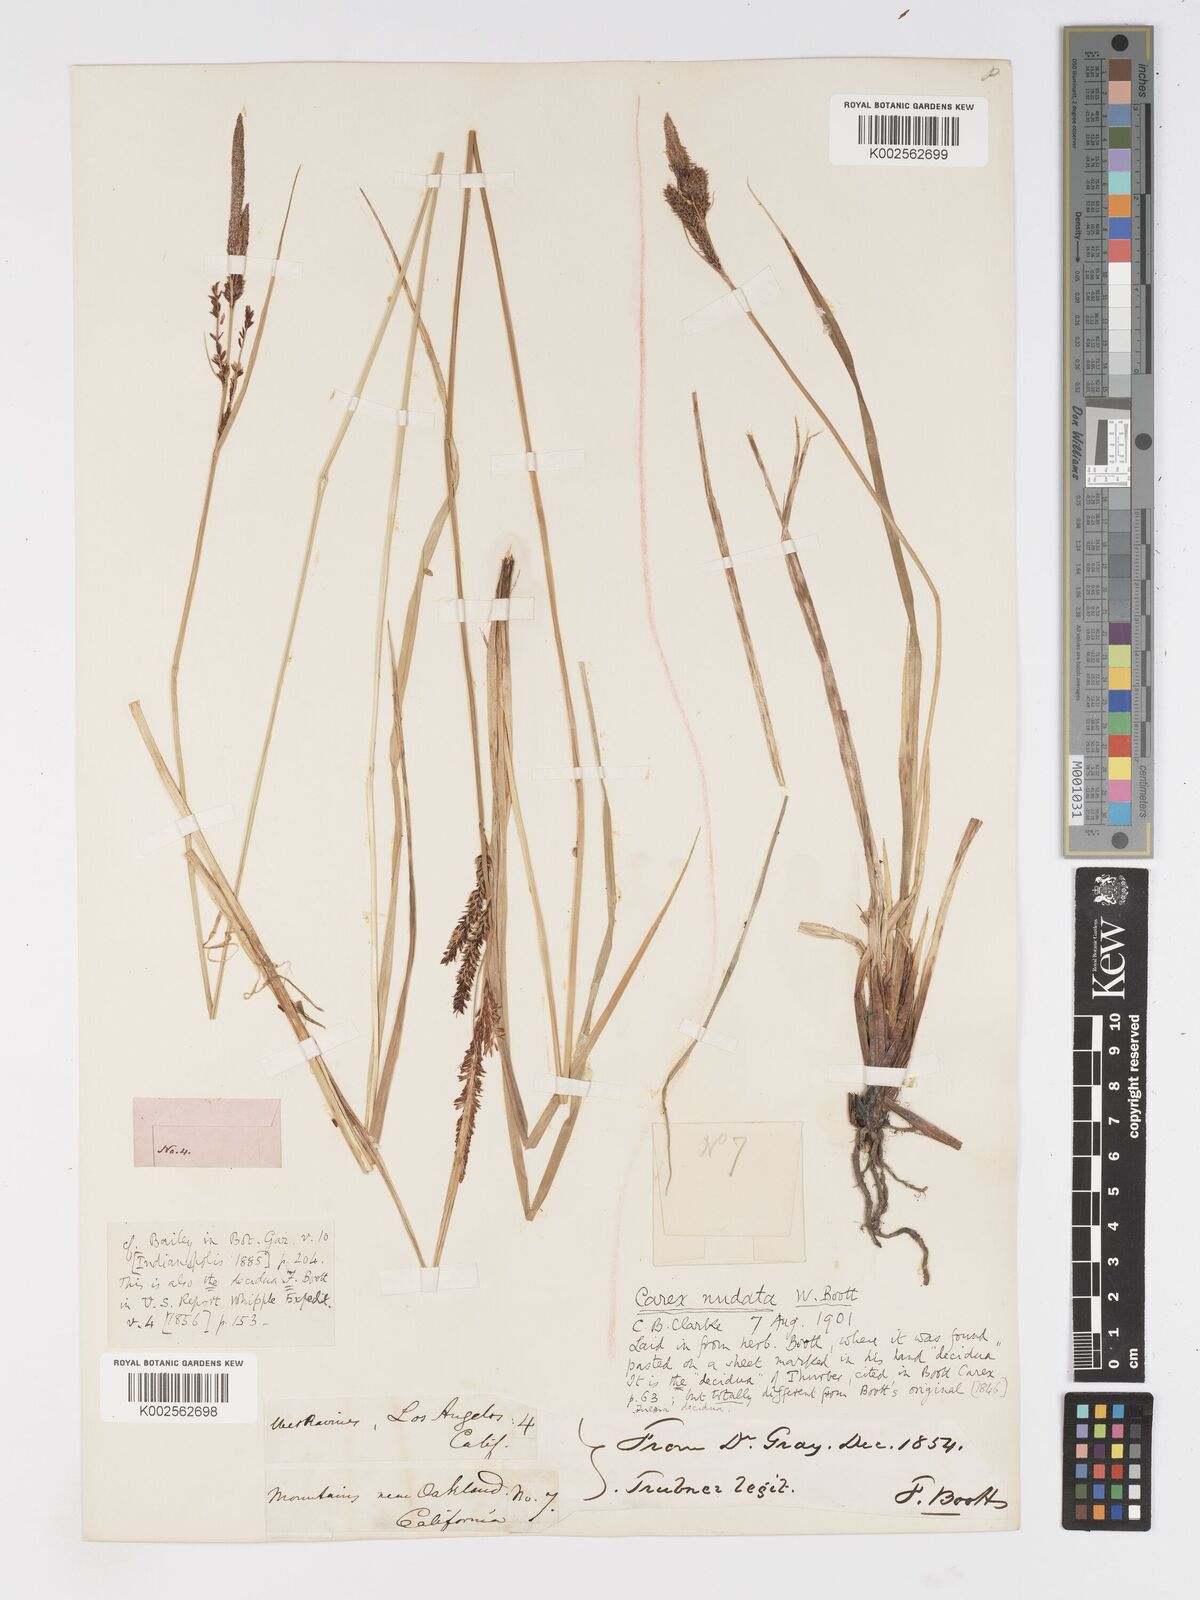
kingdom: Plantae
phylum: Tracheophyta
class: Liliopsida
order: Poales
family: Cyperaceae
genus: Carex
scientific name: Carex nudata
